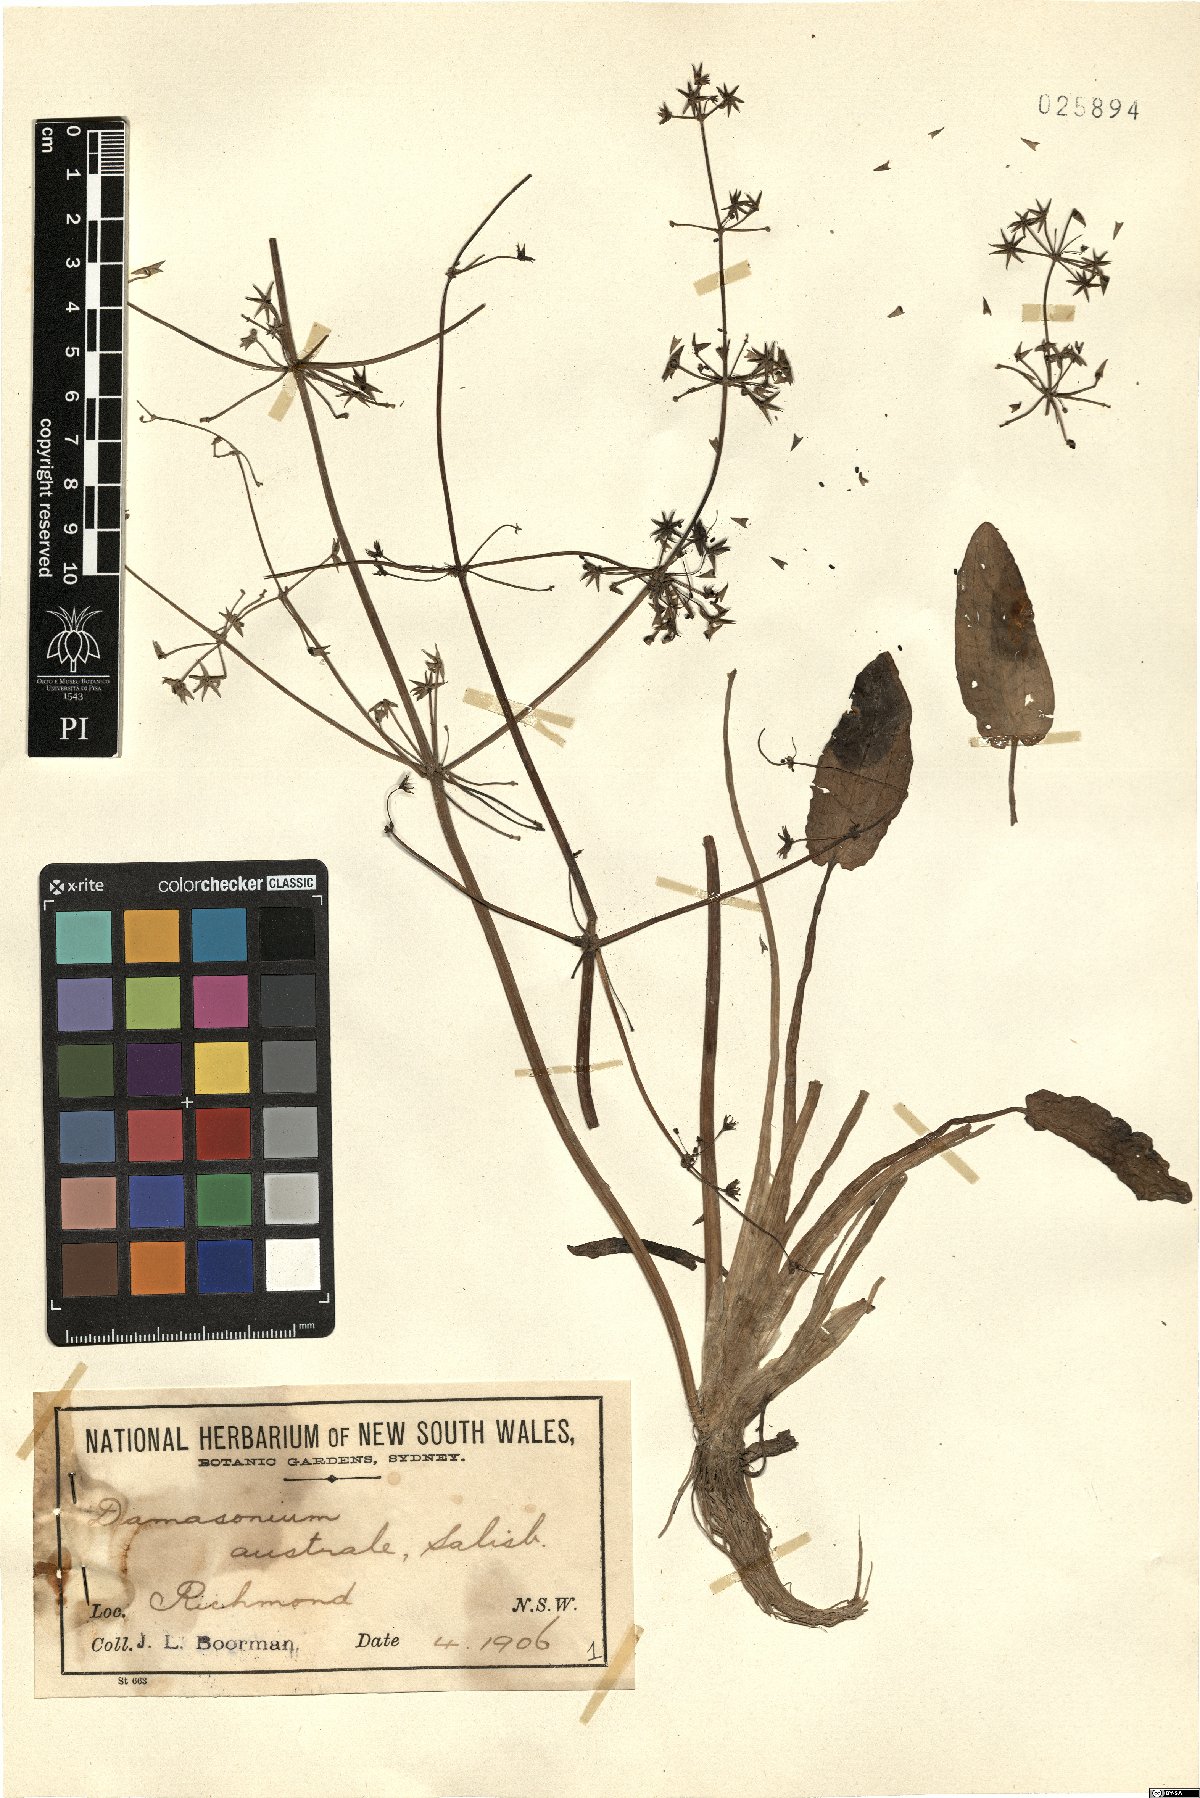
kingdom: Plantae
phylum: Tracheophyta
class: Liliopsida
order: Alismatales
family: Alismataceae
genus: Damasonium
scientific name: Damasonium minus
